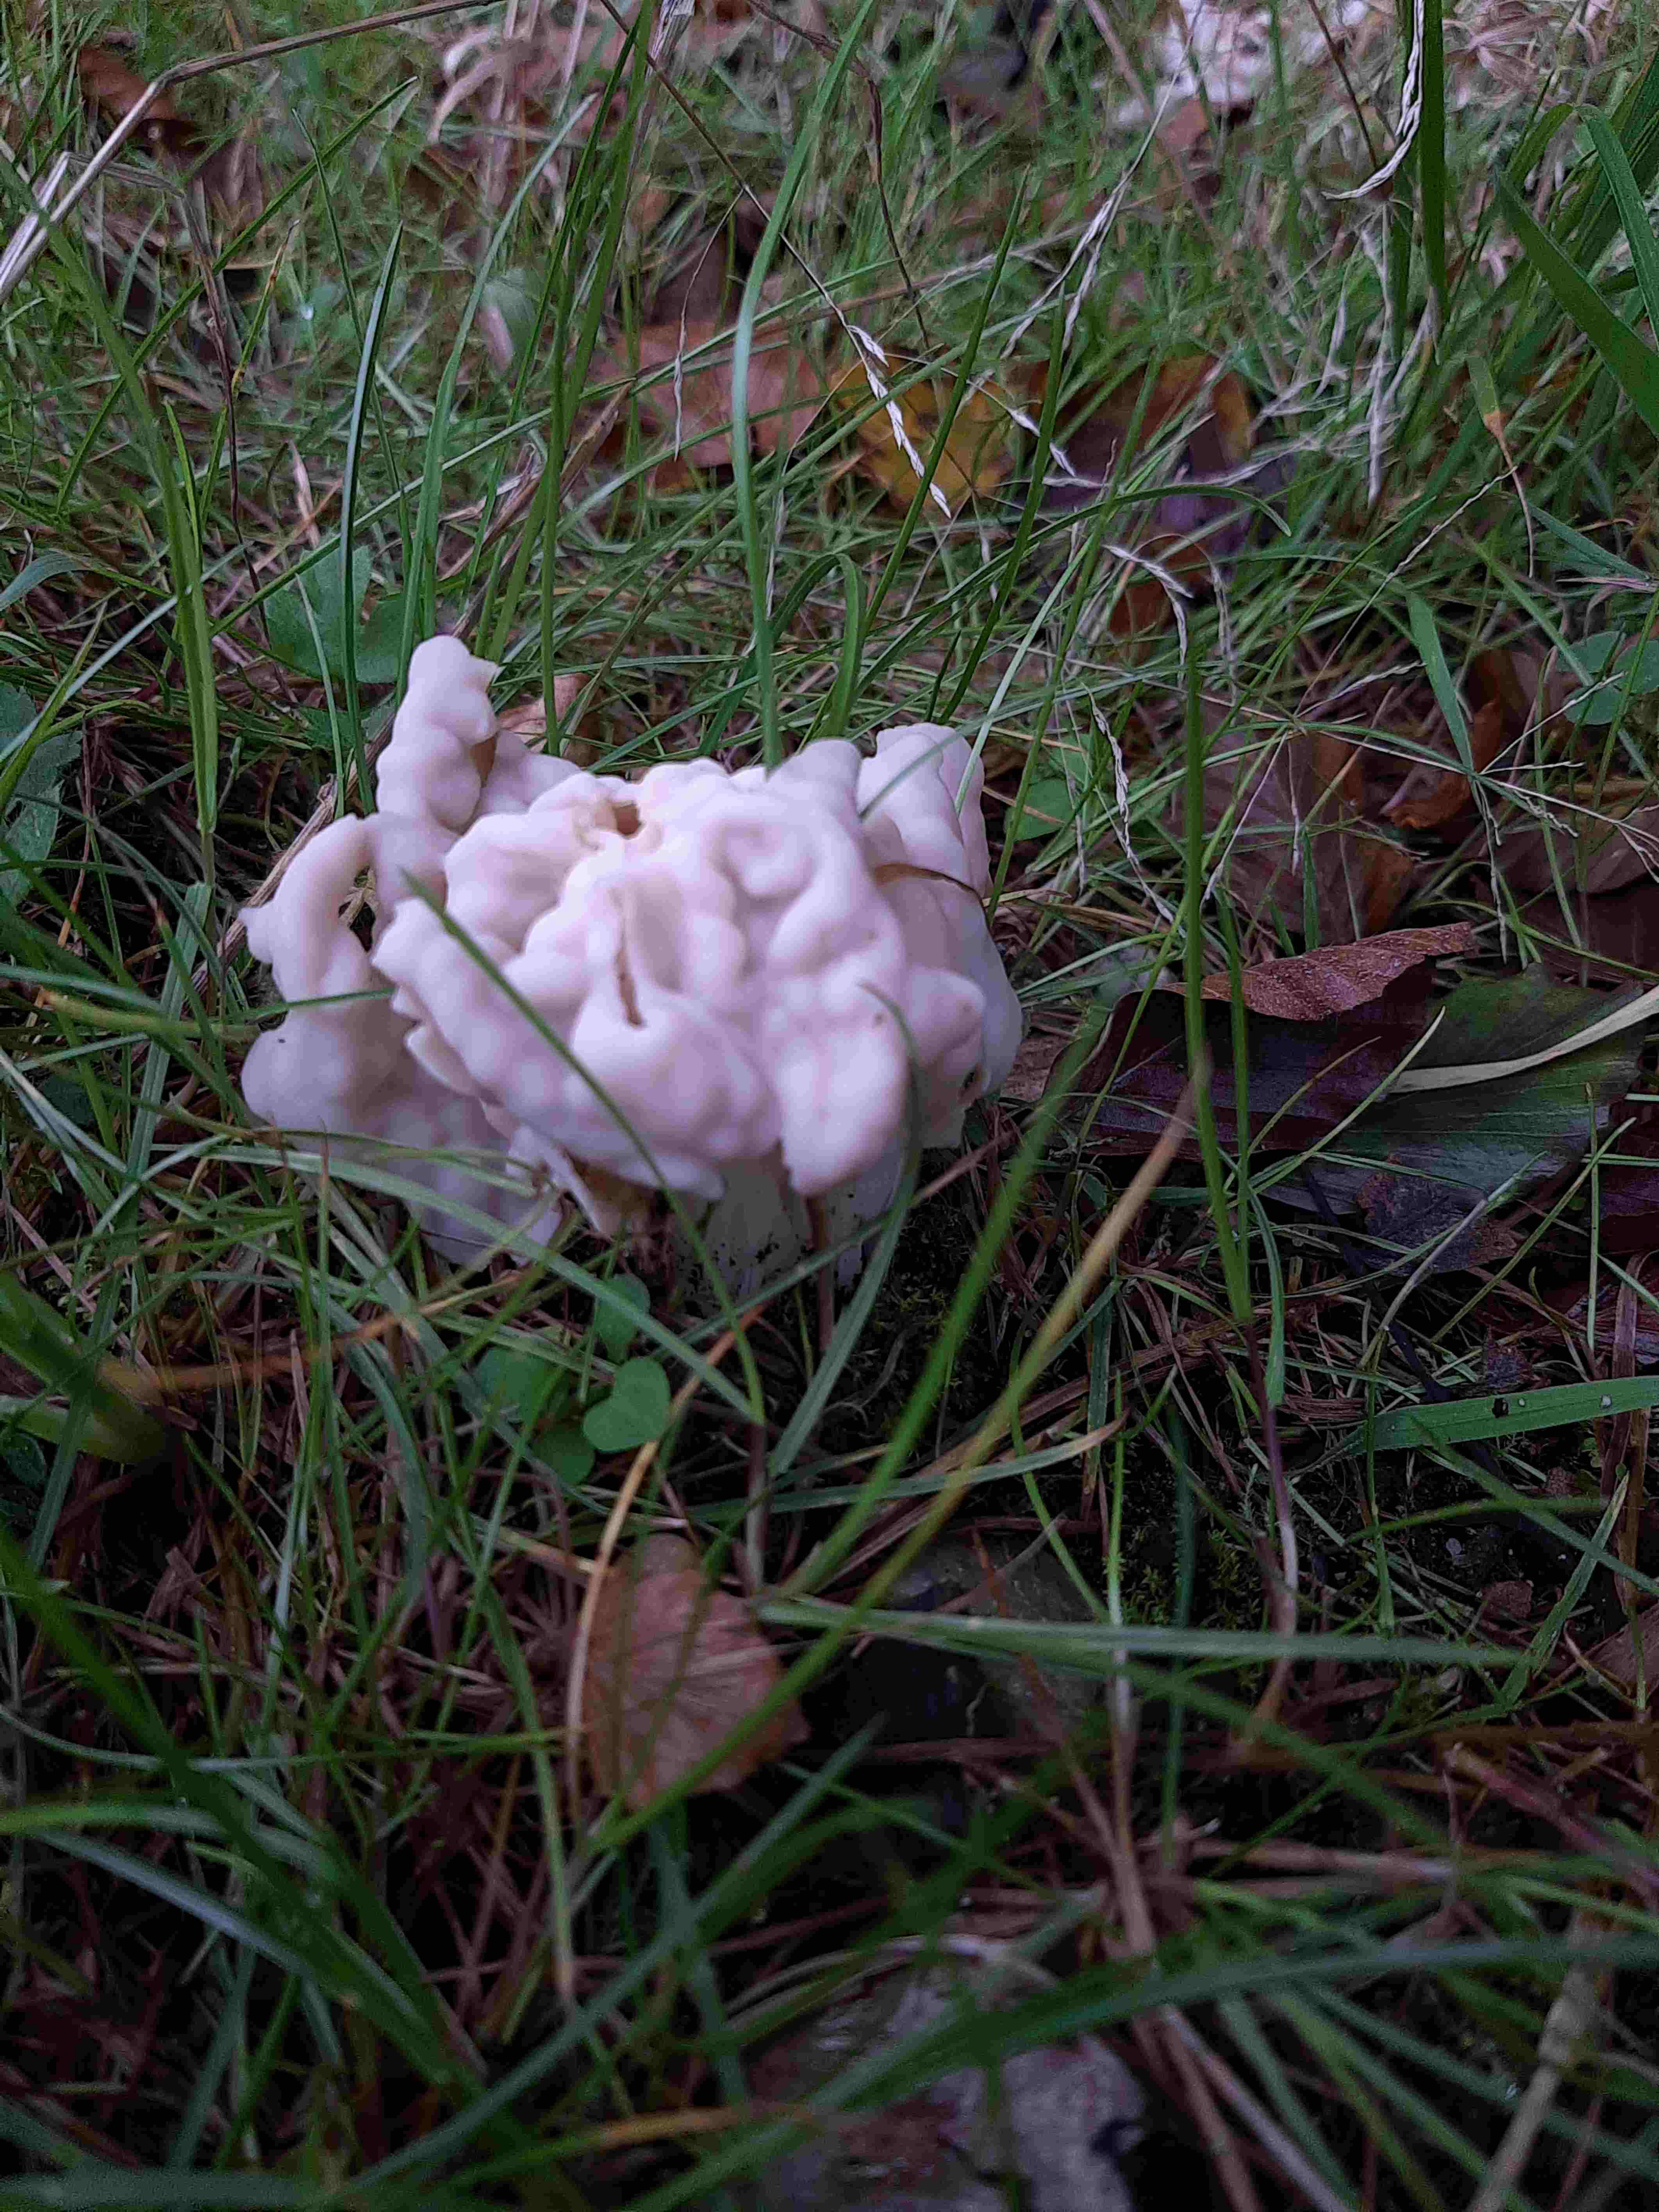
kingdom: Fungi
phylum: Ascomycota
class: Pezizomycetes
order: Pezizales
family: Helvellaceae
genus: Helvella
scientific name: Helvella crispa
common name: kruset foldhat
